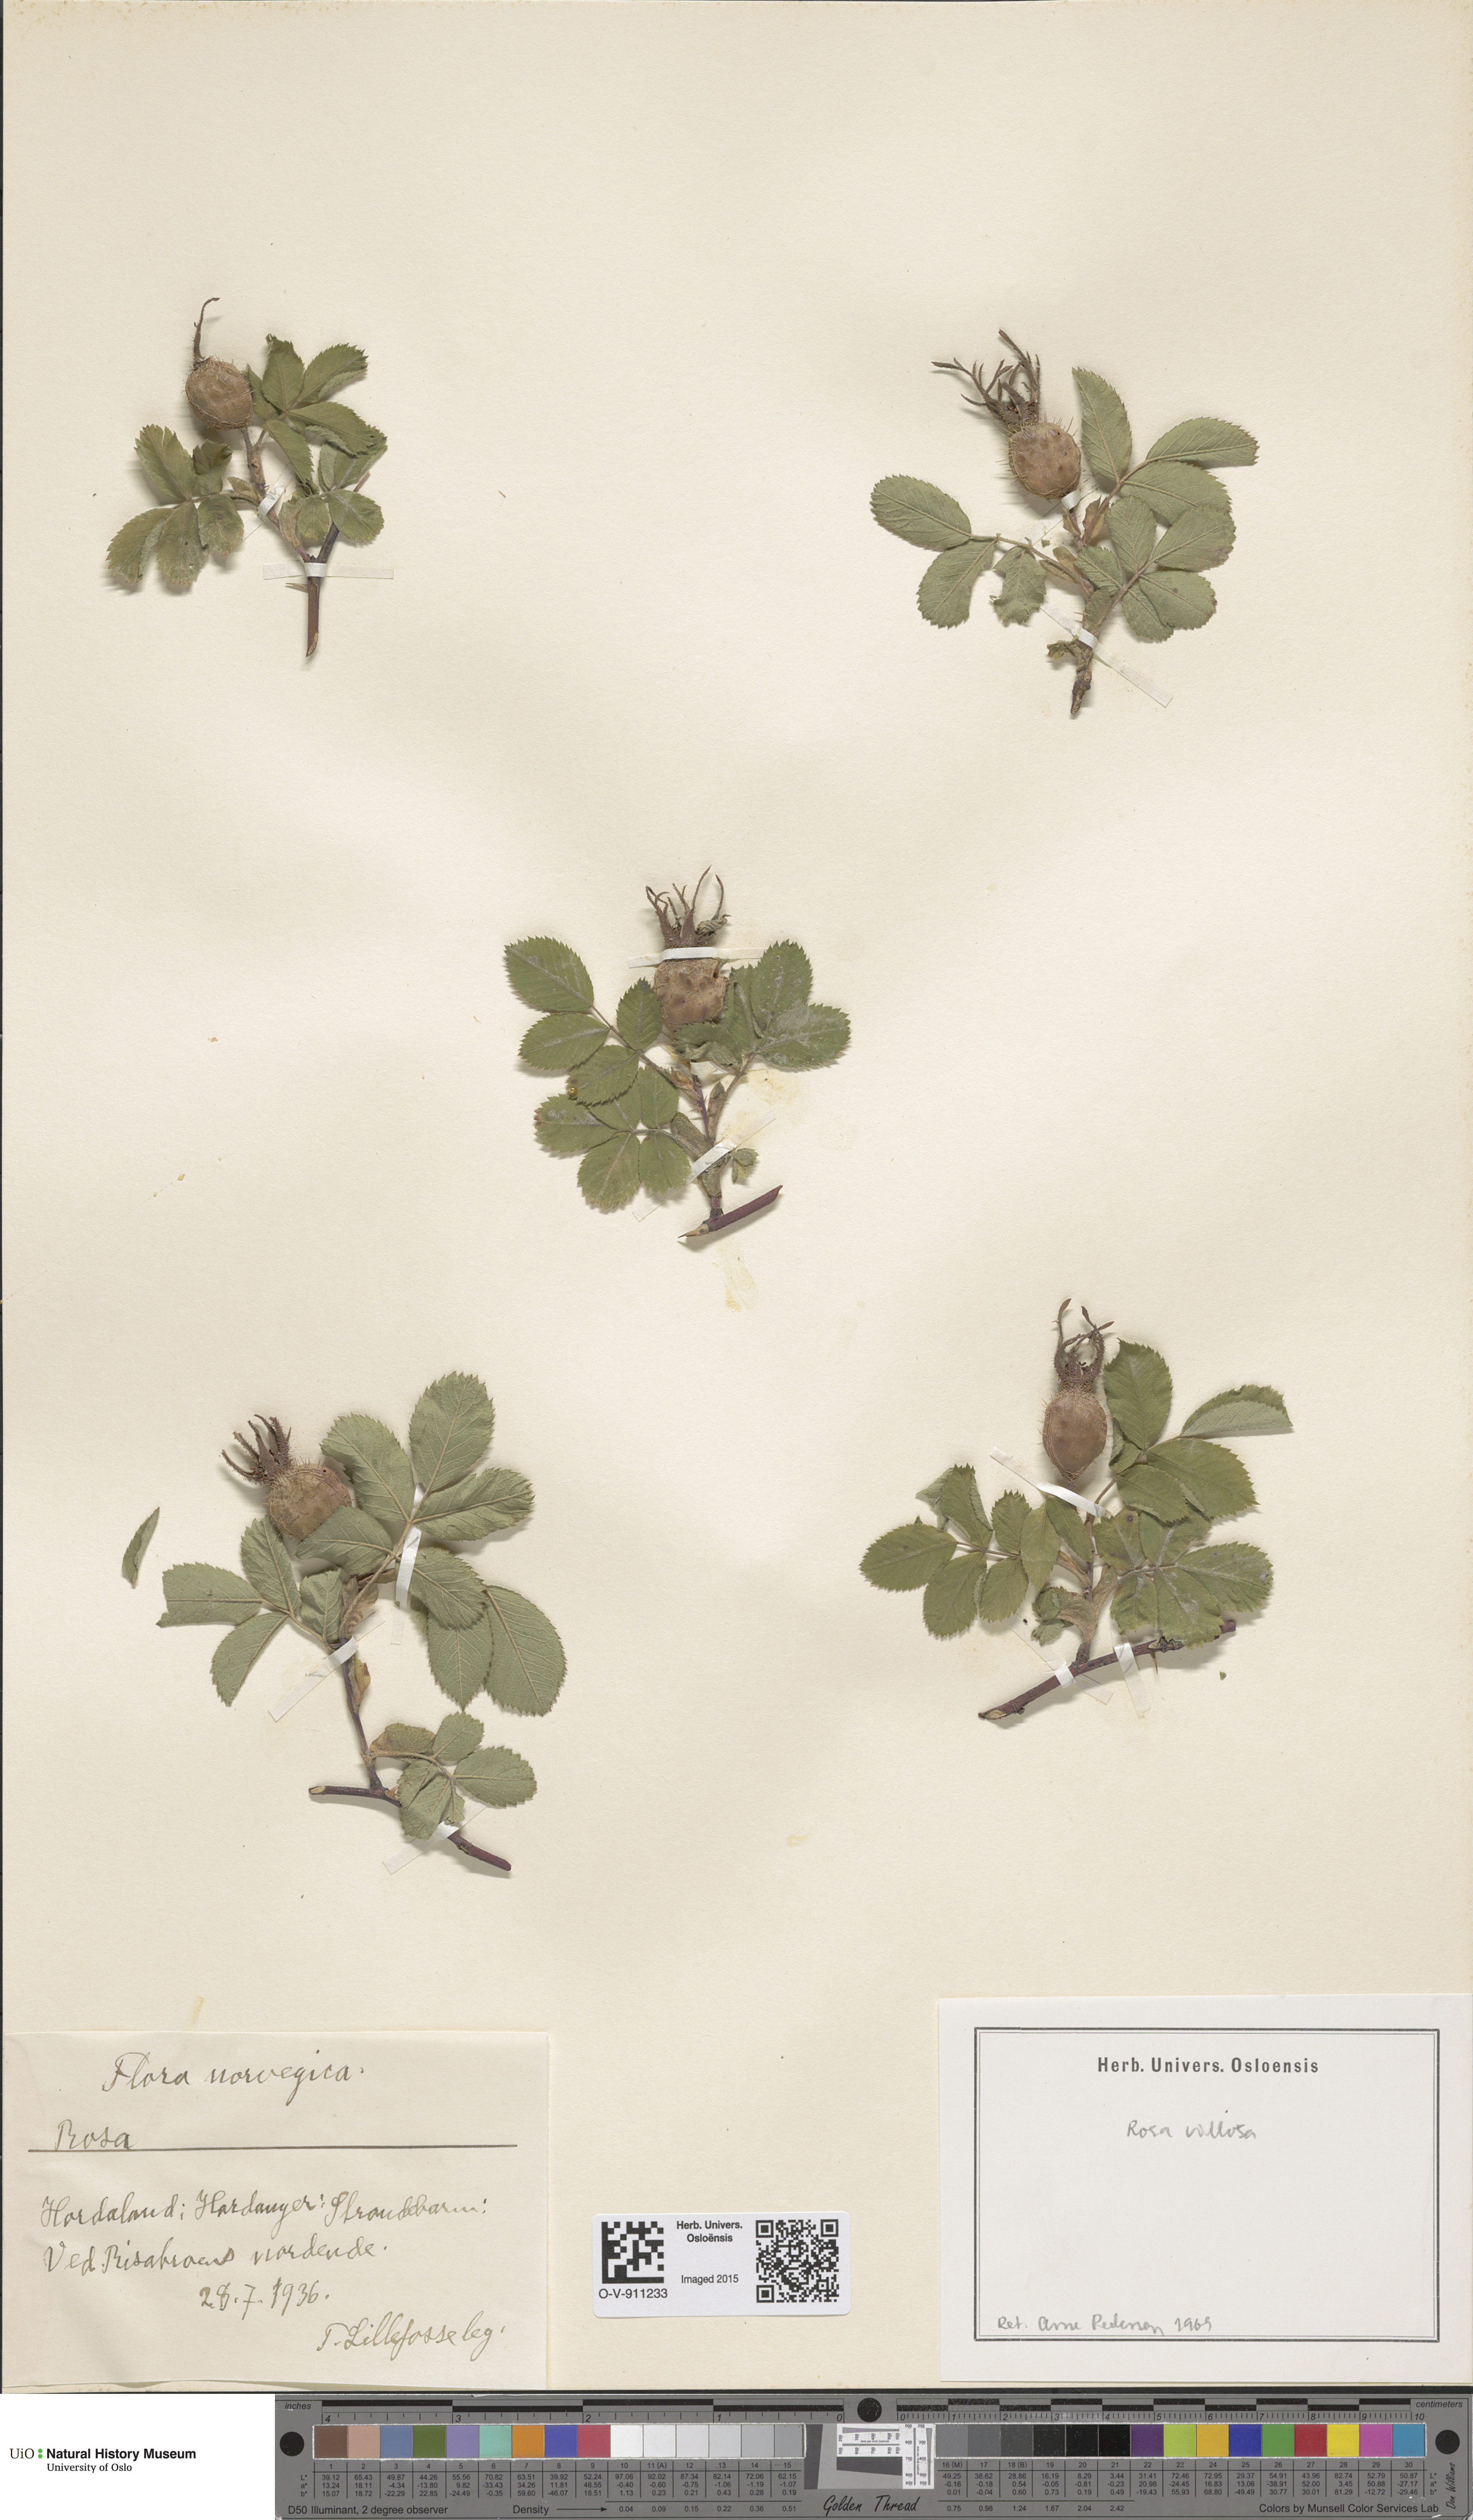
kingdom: Plantae
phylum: Tracheophyta
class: Magnoliopsida
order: Rosales
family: Rosaceae
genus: Rosa
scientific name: Rosa villosa
